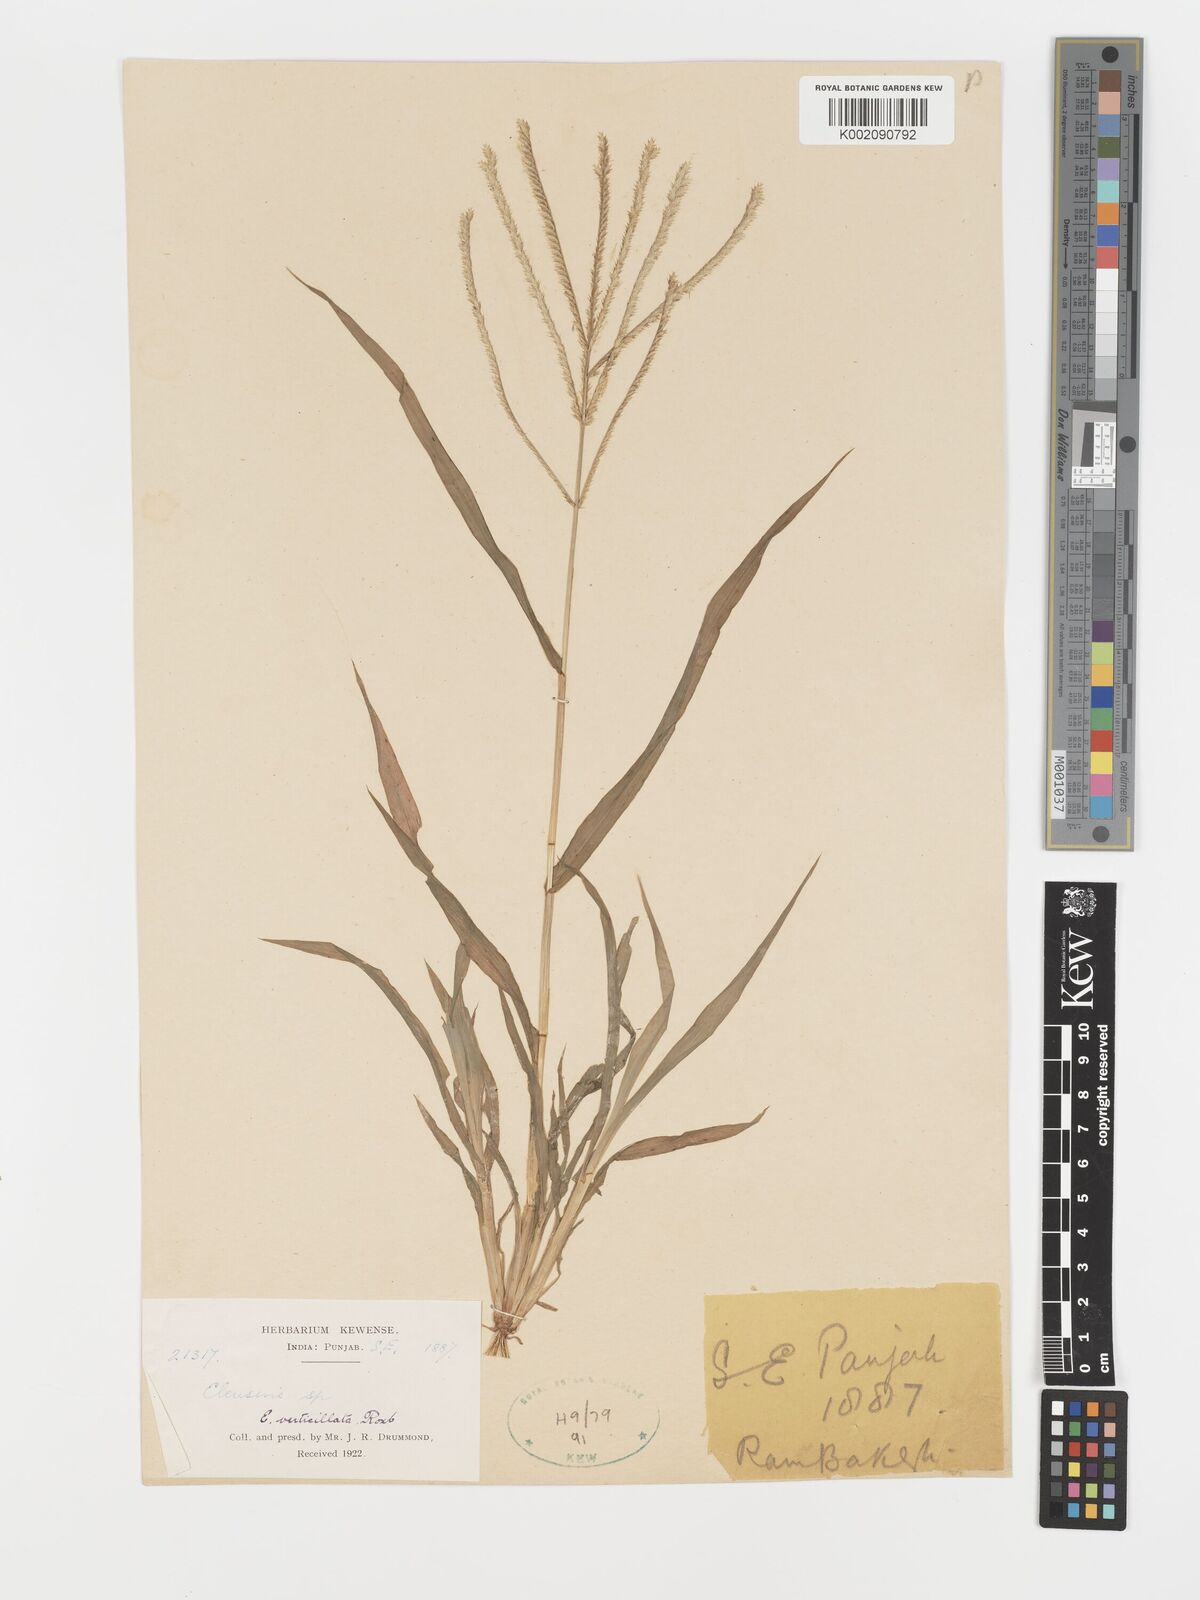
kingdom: Plantae
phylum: Tracheophyta
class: Liliopsida
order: Poales
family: Poaceae
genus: Acrachne
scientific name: Acrachne racemosa
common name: Goosegrass
